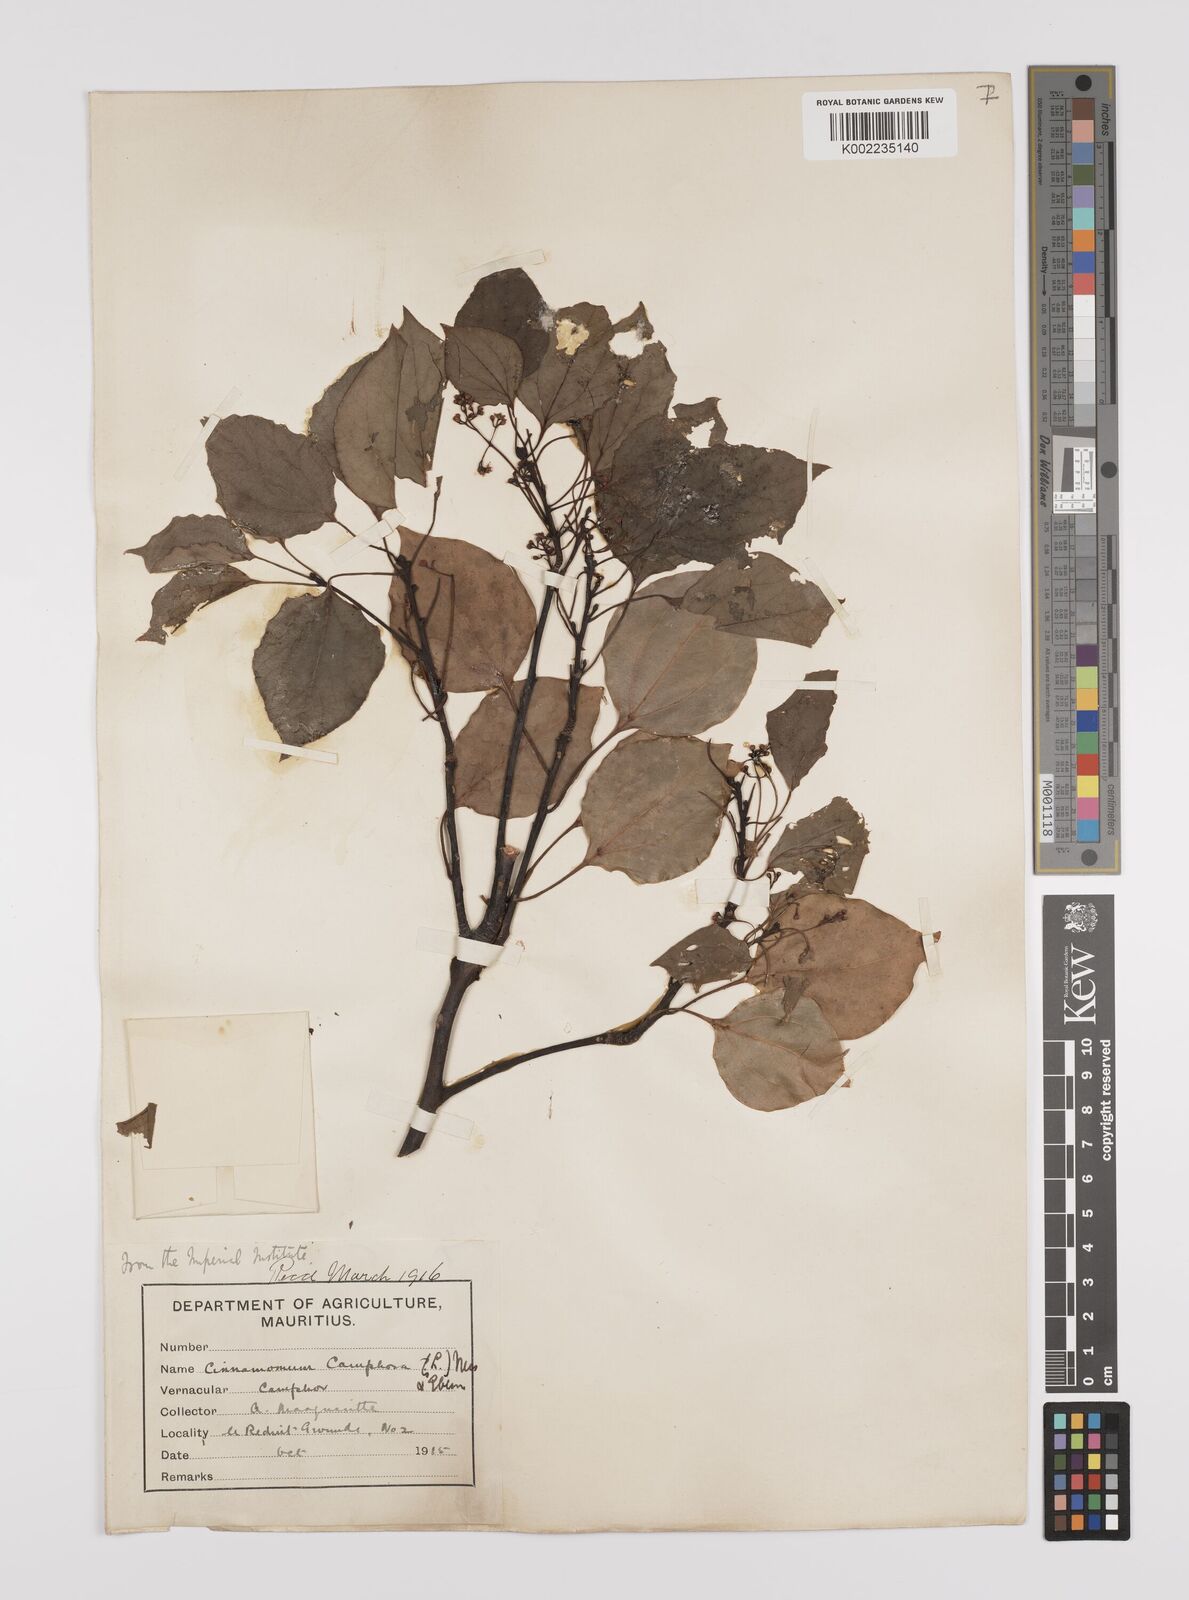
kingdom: Plantae
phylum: Tracheophyta
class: Magnoliopsida
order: Laurales
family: Lauraceae
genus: Cinnamomum
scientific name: Cinnamomum camphora
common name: Camphortree
